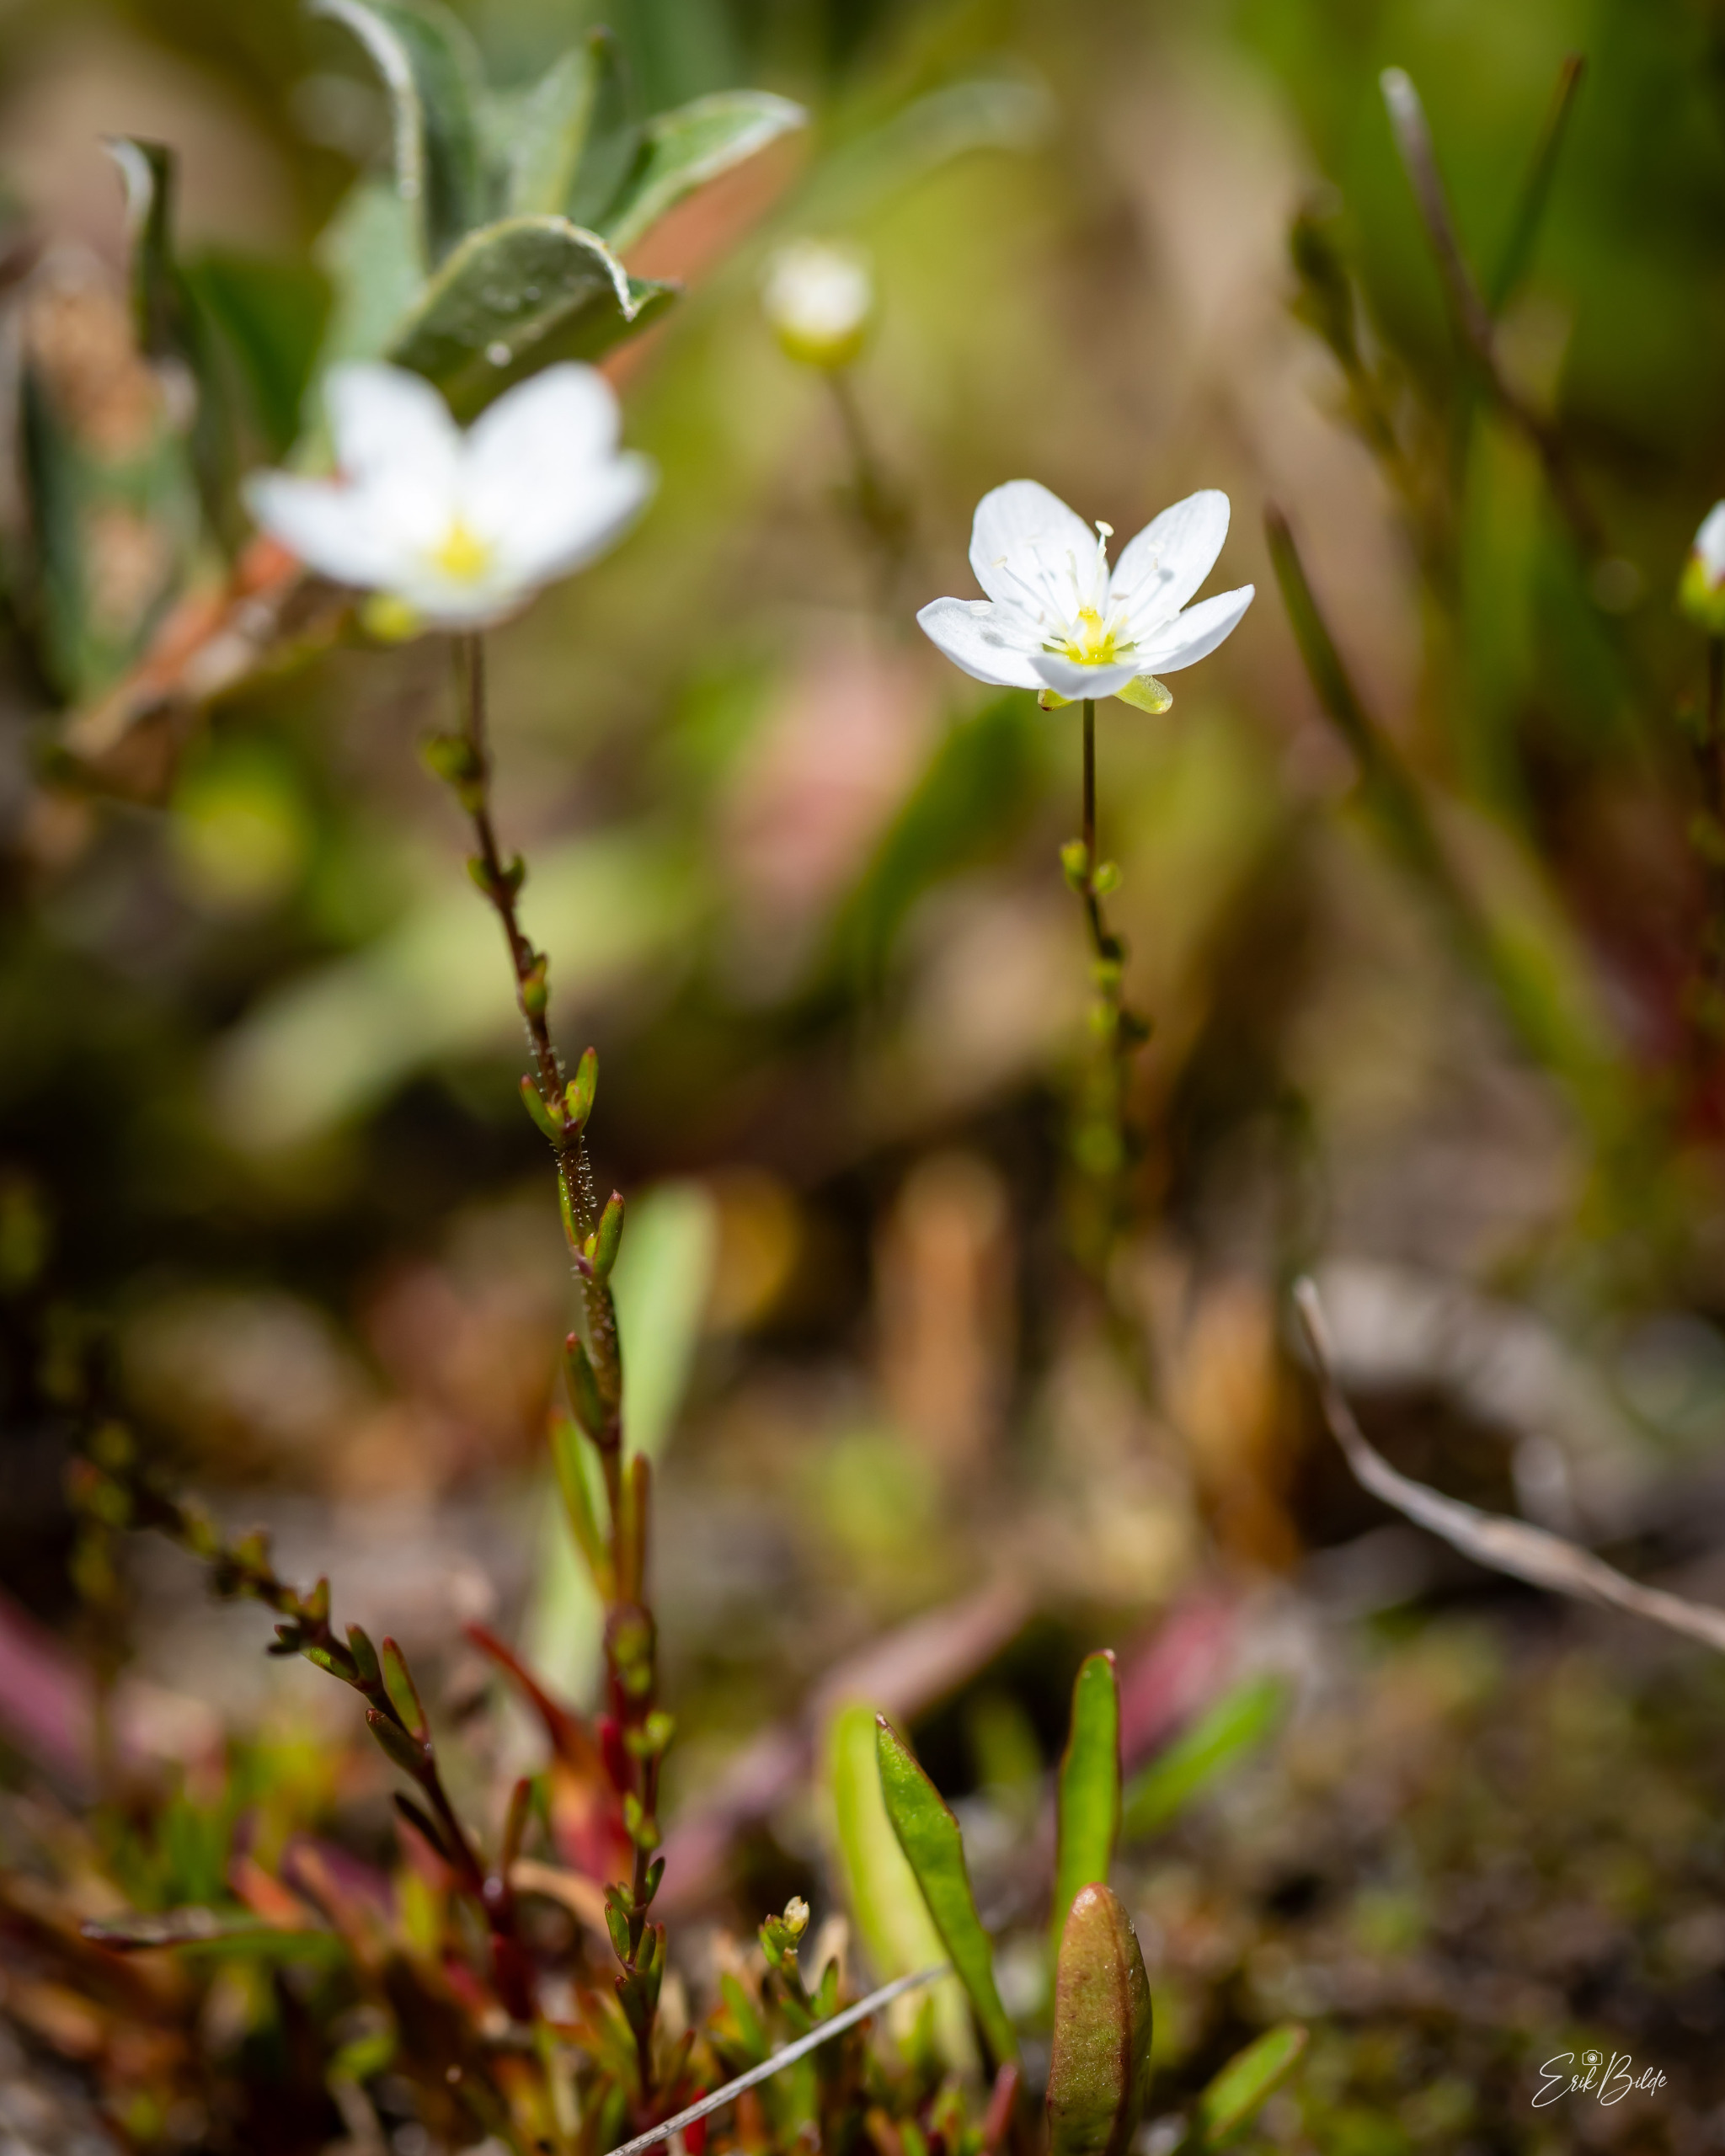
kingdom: Plantae
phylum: Tracheophyta
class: Magnoliopsida
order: Caryophyllales
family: Caryophyllaceae
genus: Sagina
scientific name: Sagina nodosa
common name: Knude-firling
